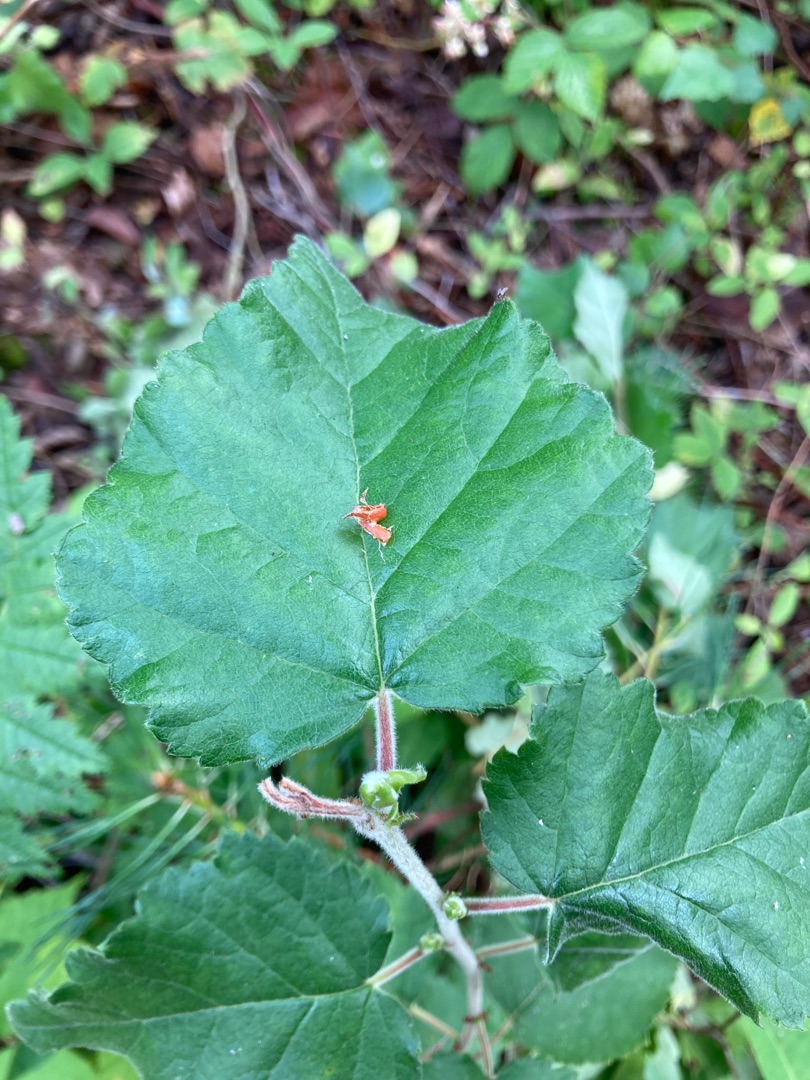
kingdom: Plantae
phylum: Tracheophyta
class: Magnoliopsida
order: Fagales
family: Betulaceae
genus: Betula
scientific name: Betula pubescens
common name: Dun-birk
